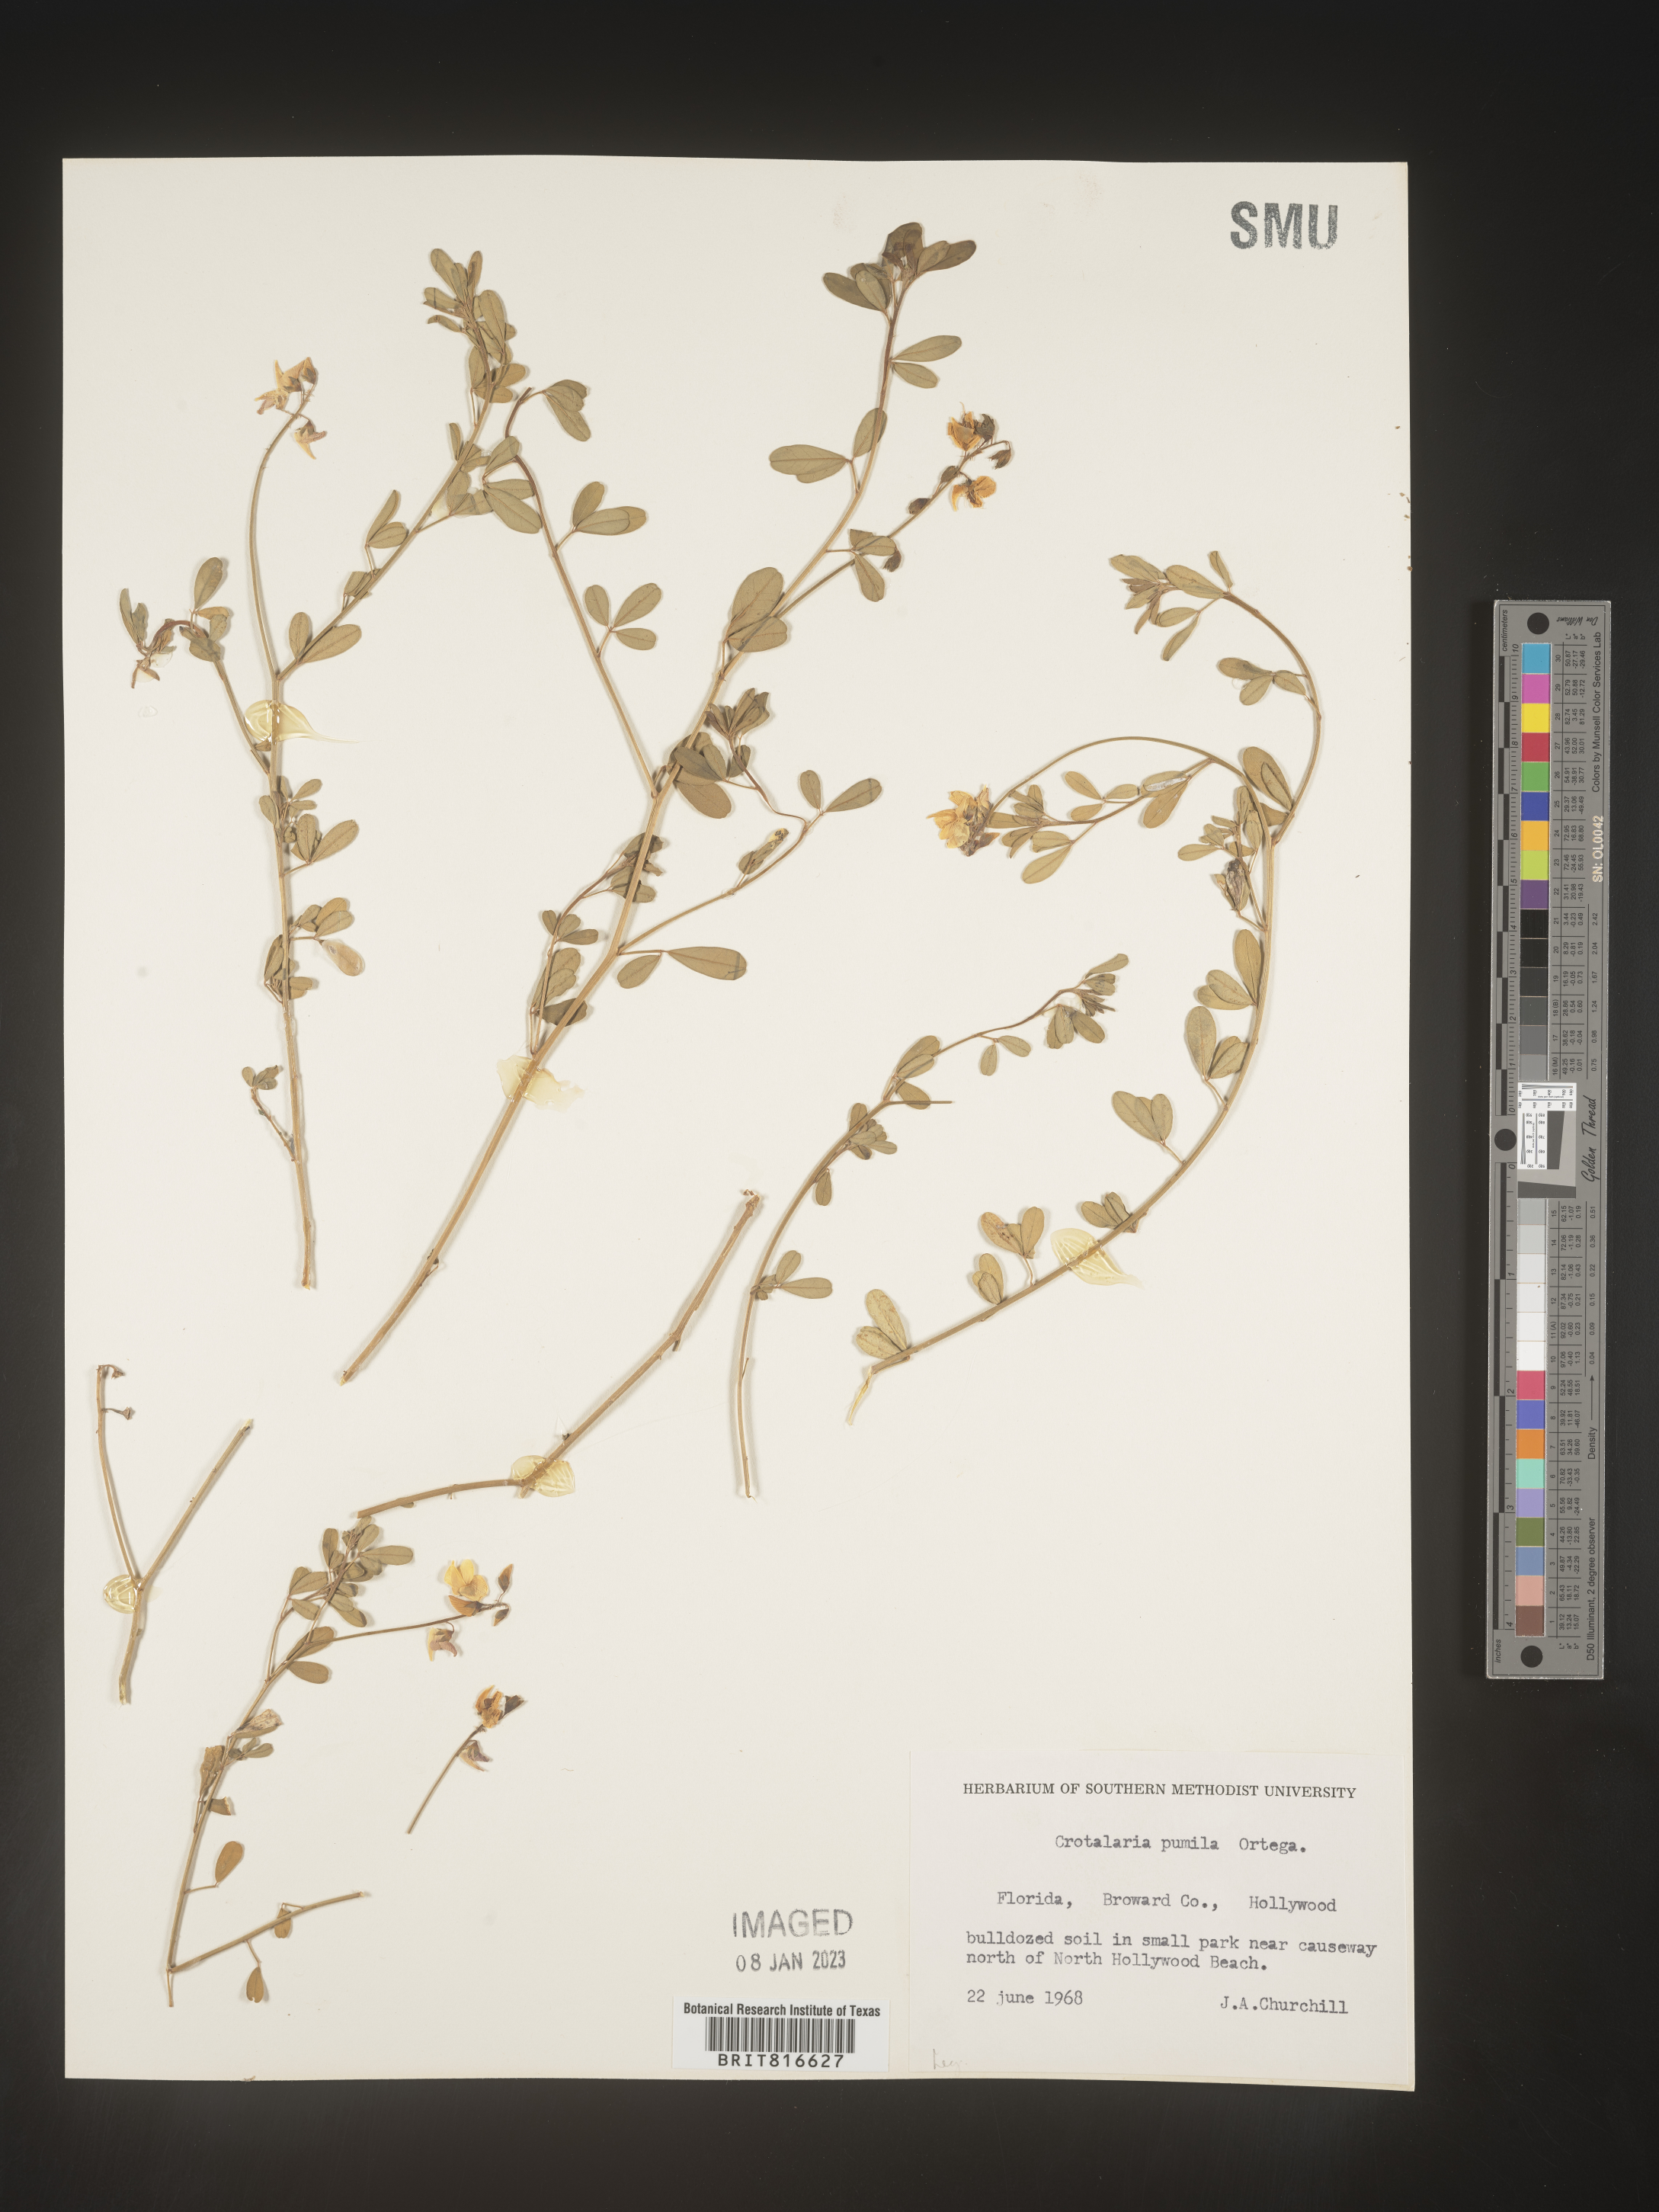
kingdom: Plantae
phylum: Tracheophyta
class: Magnoliopsida
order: Fabales
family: Fabaceae
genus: Crotalaria
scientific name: Crotalaria pumila
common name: Low rattlebox
